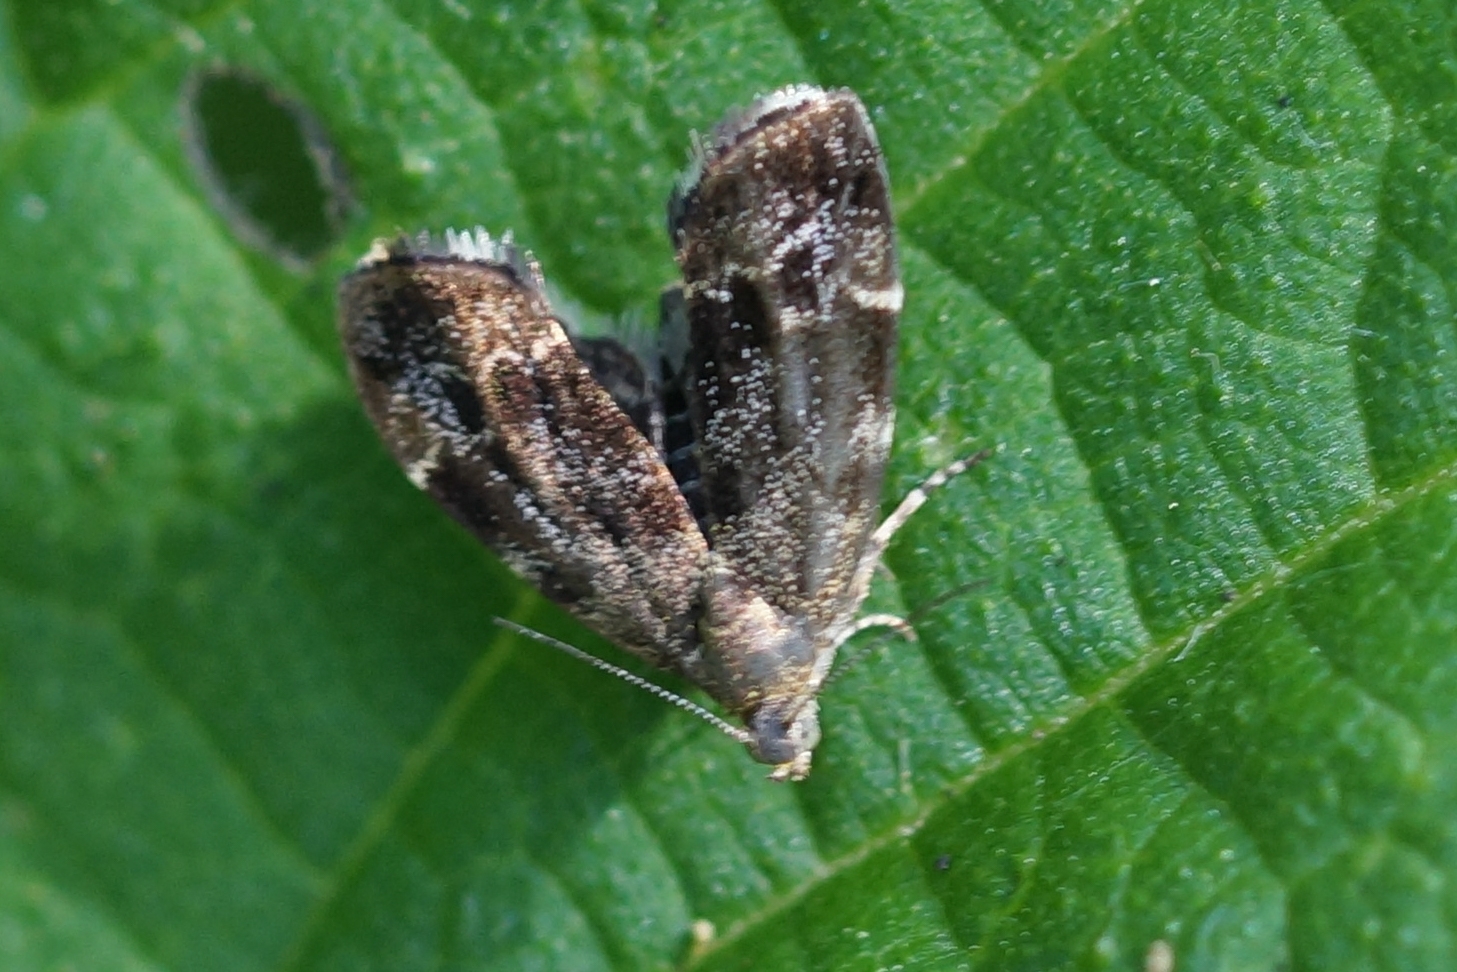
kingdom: Animalia
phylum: Arthropoda
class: Insecta
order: Lepidoptera
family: Choreutidae
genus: Anthophila
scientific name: Anthophila fabriciana
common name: Bredvinget nældevikler
